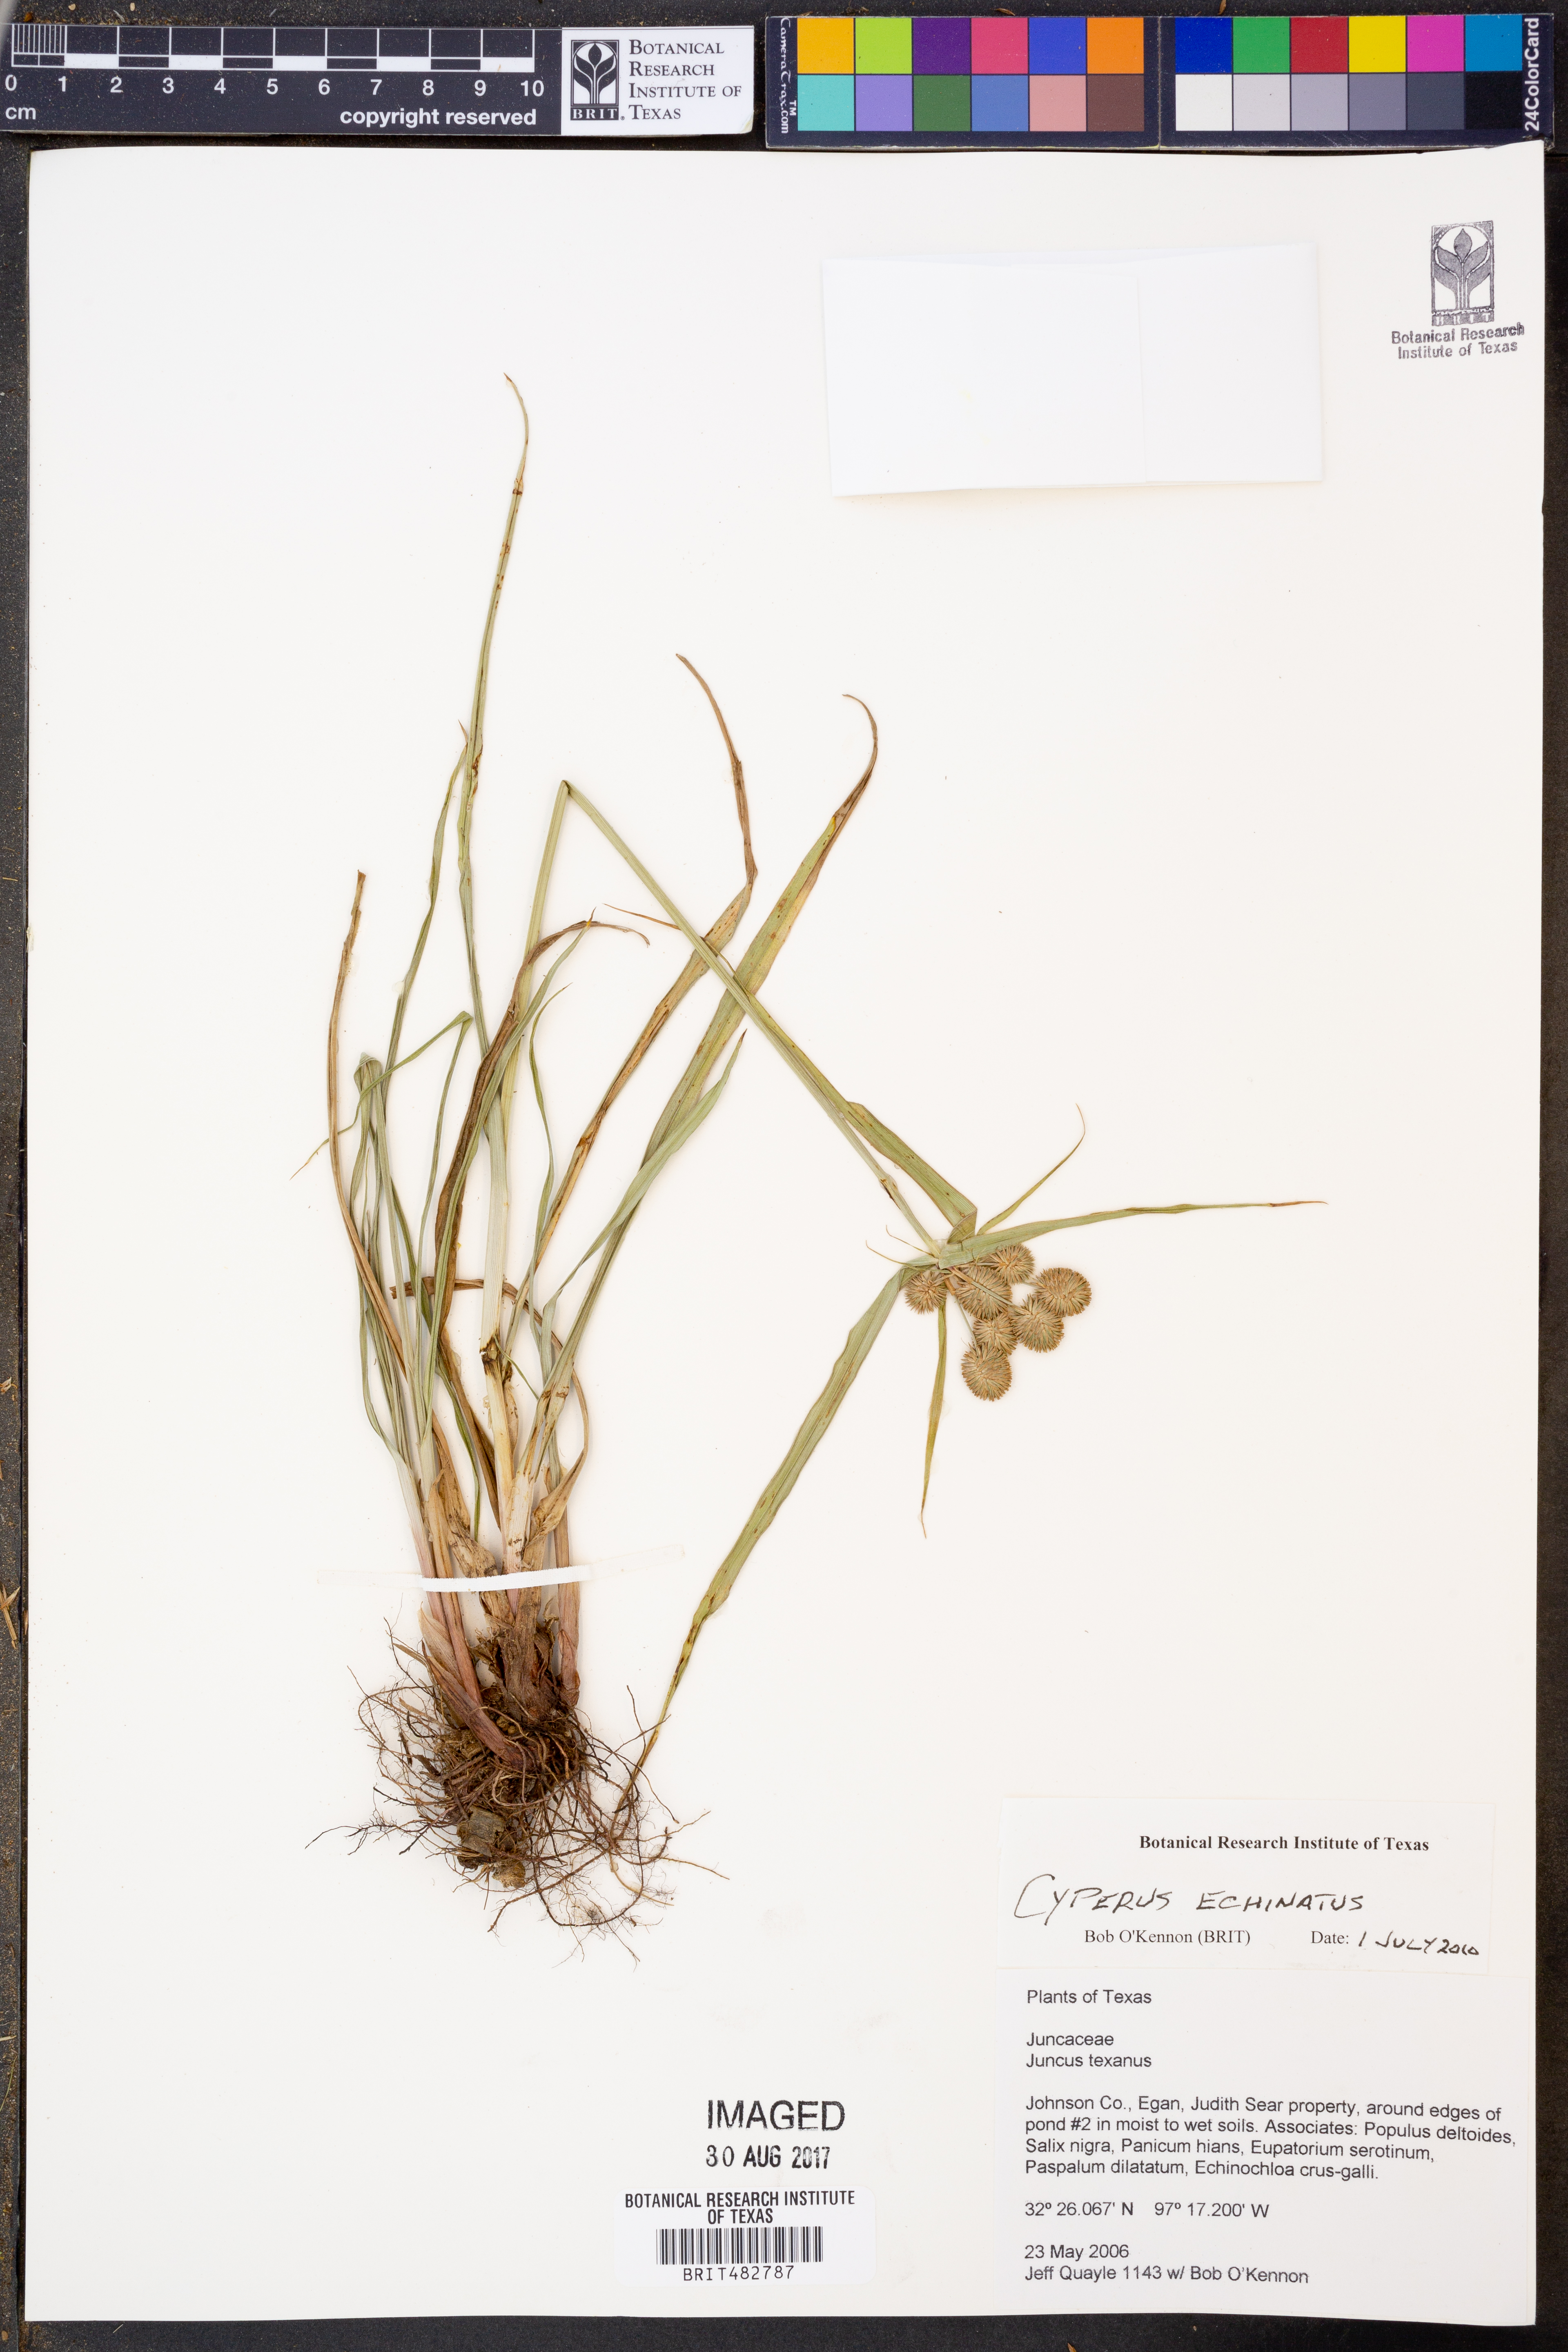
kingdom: Plantae
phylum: Tracheophyta
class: Liliopsida
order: Poales
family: Cyperaceae
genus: Cyperus
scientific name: Cyperus echinatus
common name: Teasel sedge
